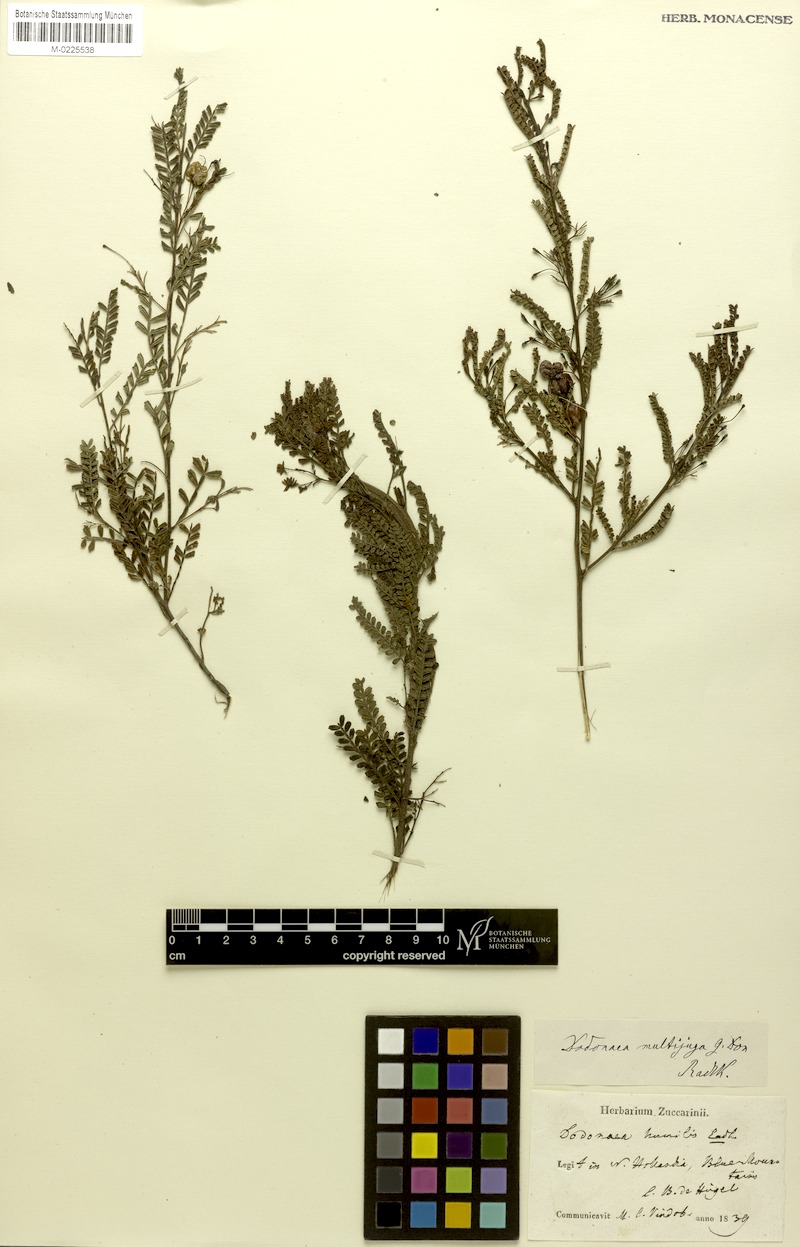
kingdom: Plantae
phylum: Tracheophyta
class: Magnoliopsida
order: Sapindales
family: Sapindaceae
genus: Dodonaea
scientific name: Dodonaea multijuga
